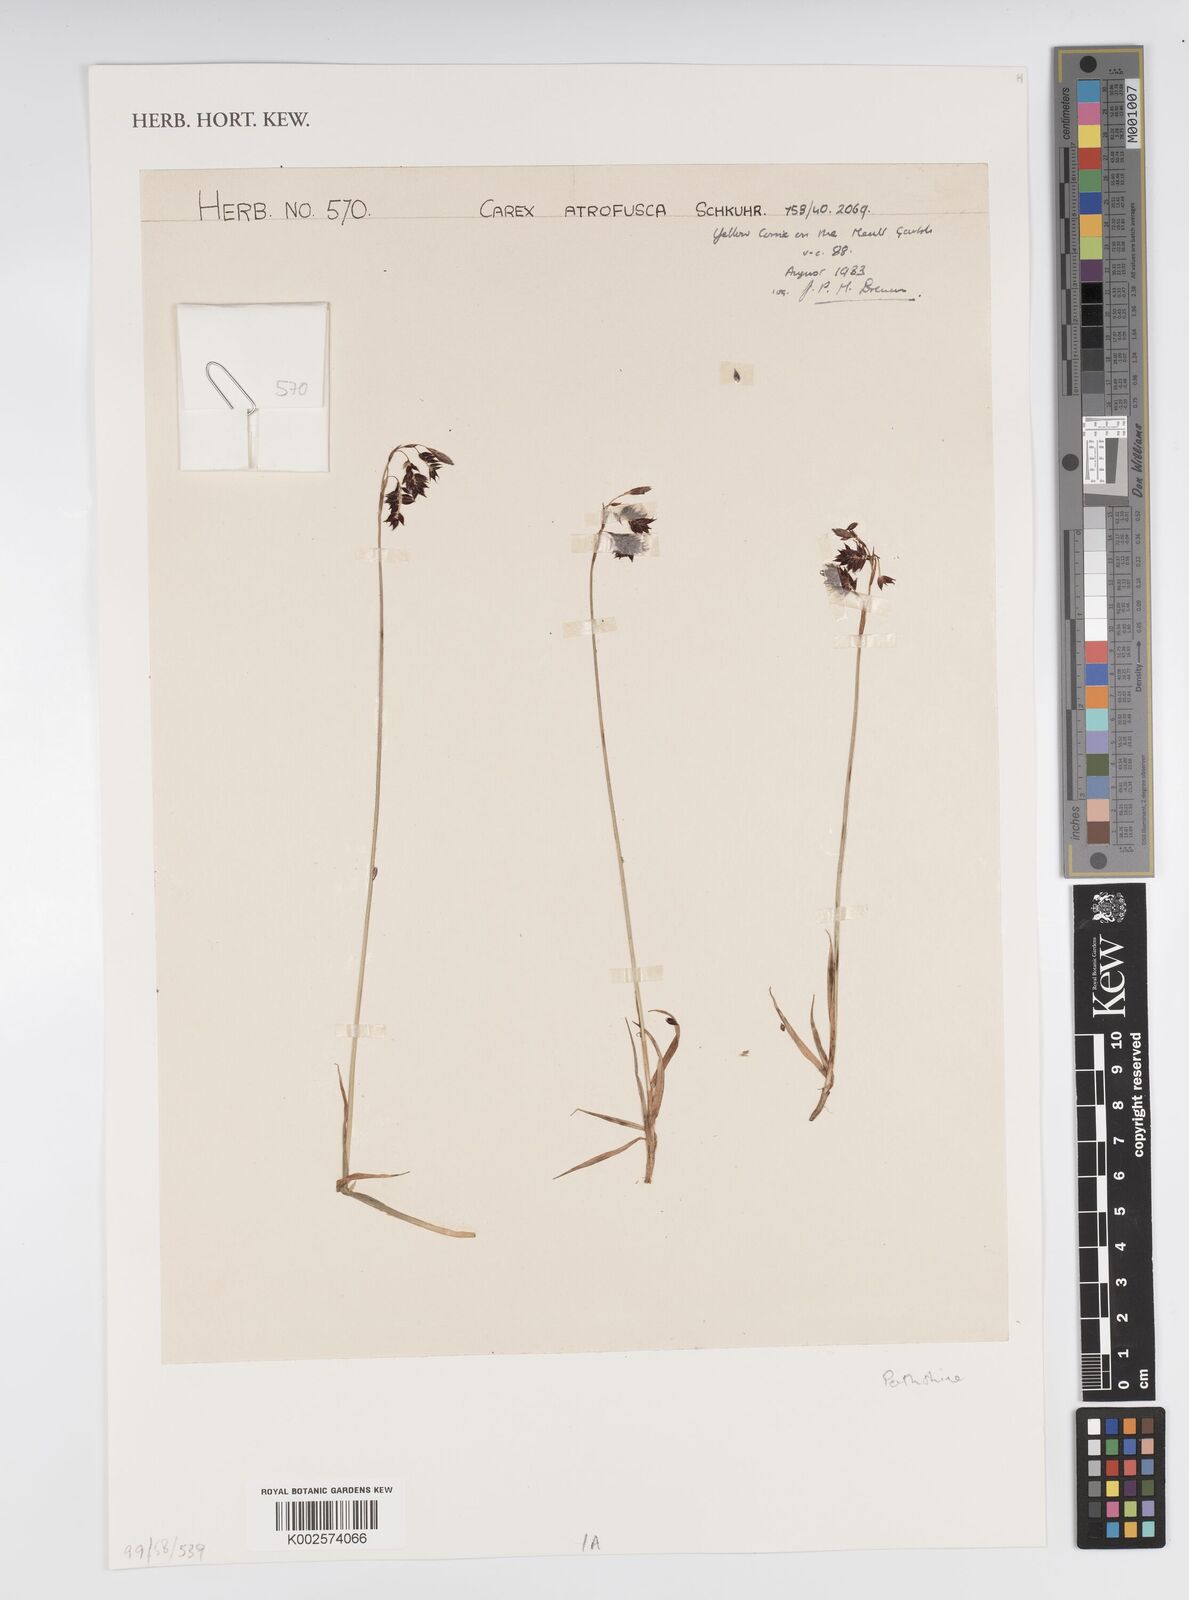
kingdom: Plantae
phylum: Tracheophyta
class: Liliopsida
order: Poales
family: Cyperaceae
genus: Carex
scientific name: Carex atrofusca
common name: Scorched alpine-sedge
